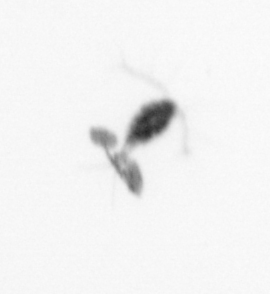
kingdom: Animalia
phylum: Arthropoda
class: Copepoda
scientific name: Copepoda
